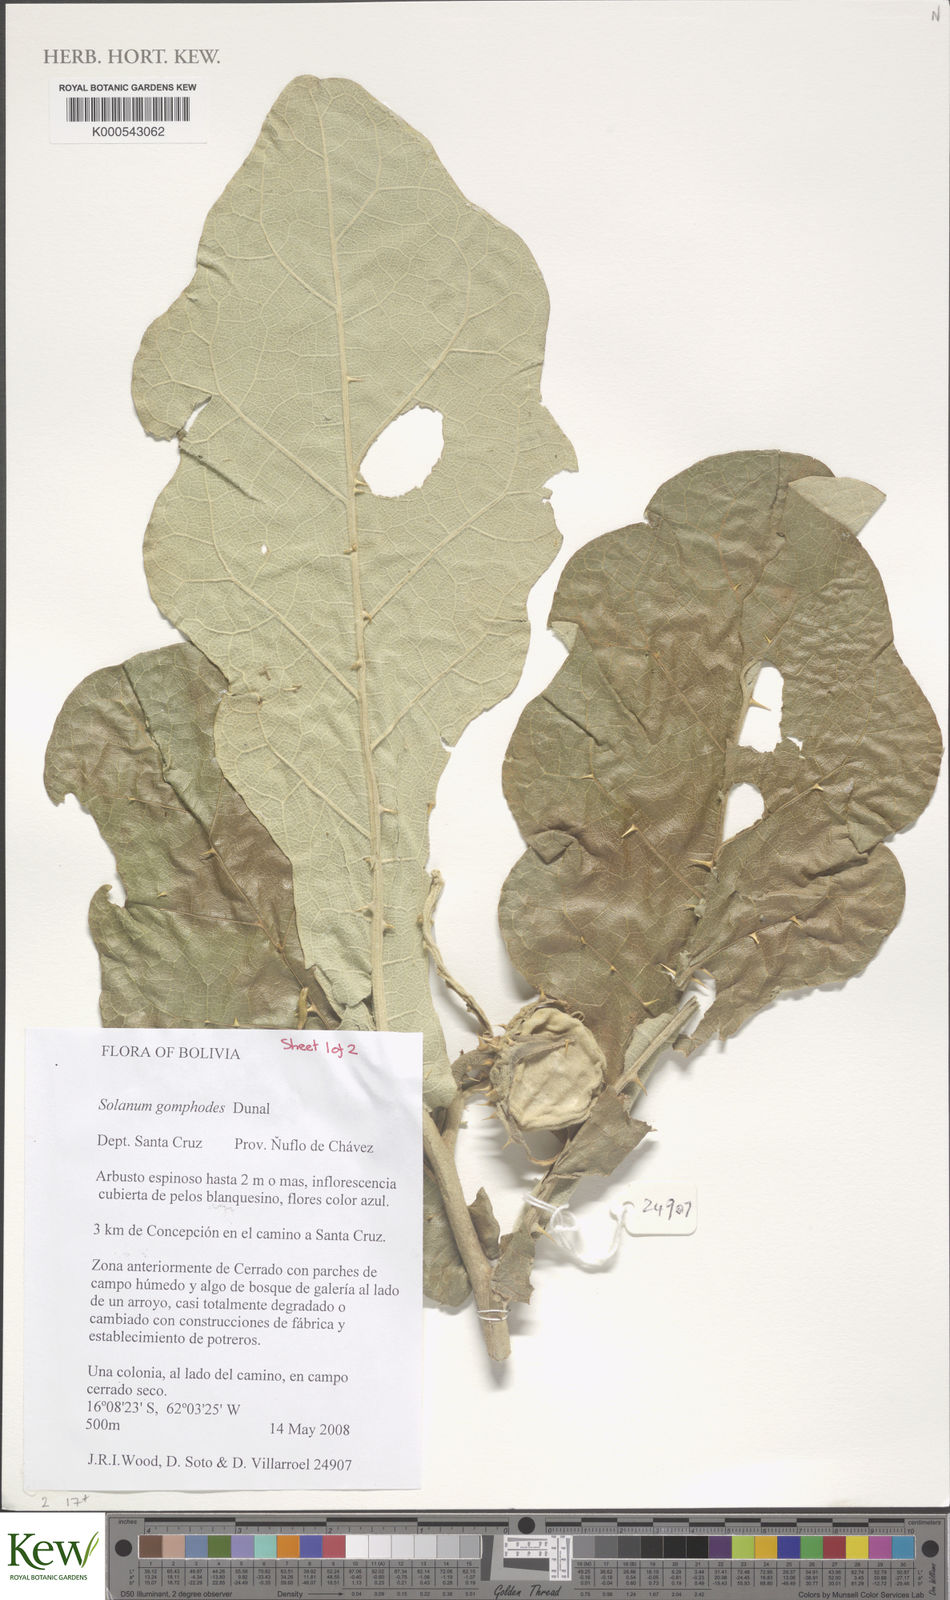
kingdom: Plantae
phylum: Tracheophyta
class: Magnoliopsida
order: Solanales
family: Solanaceae
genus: Solanum
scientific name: Solanum gomphodes
